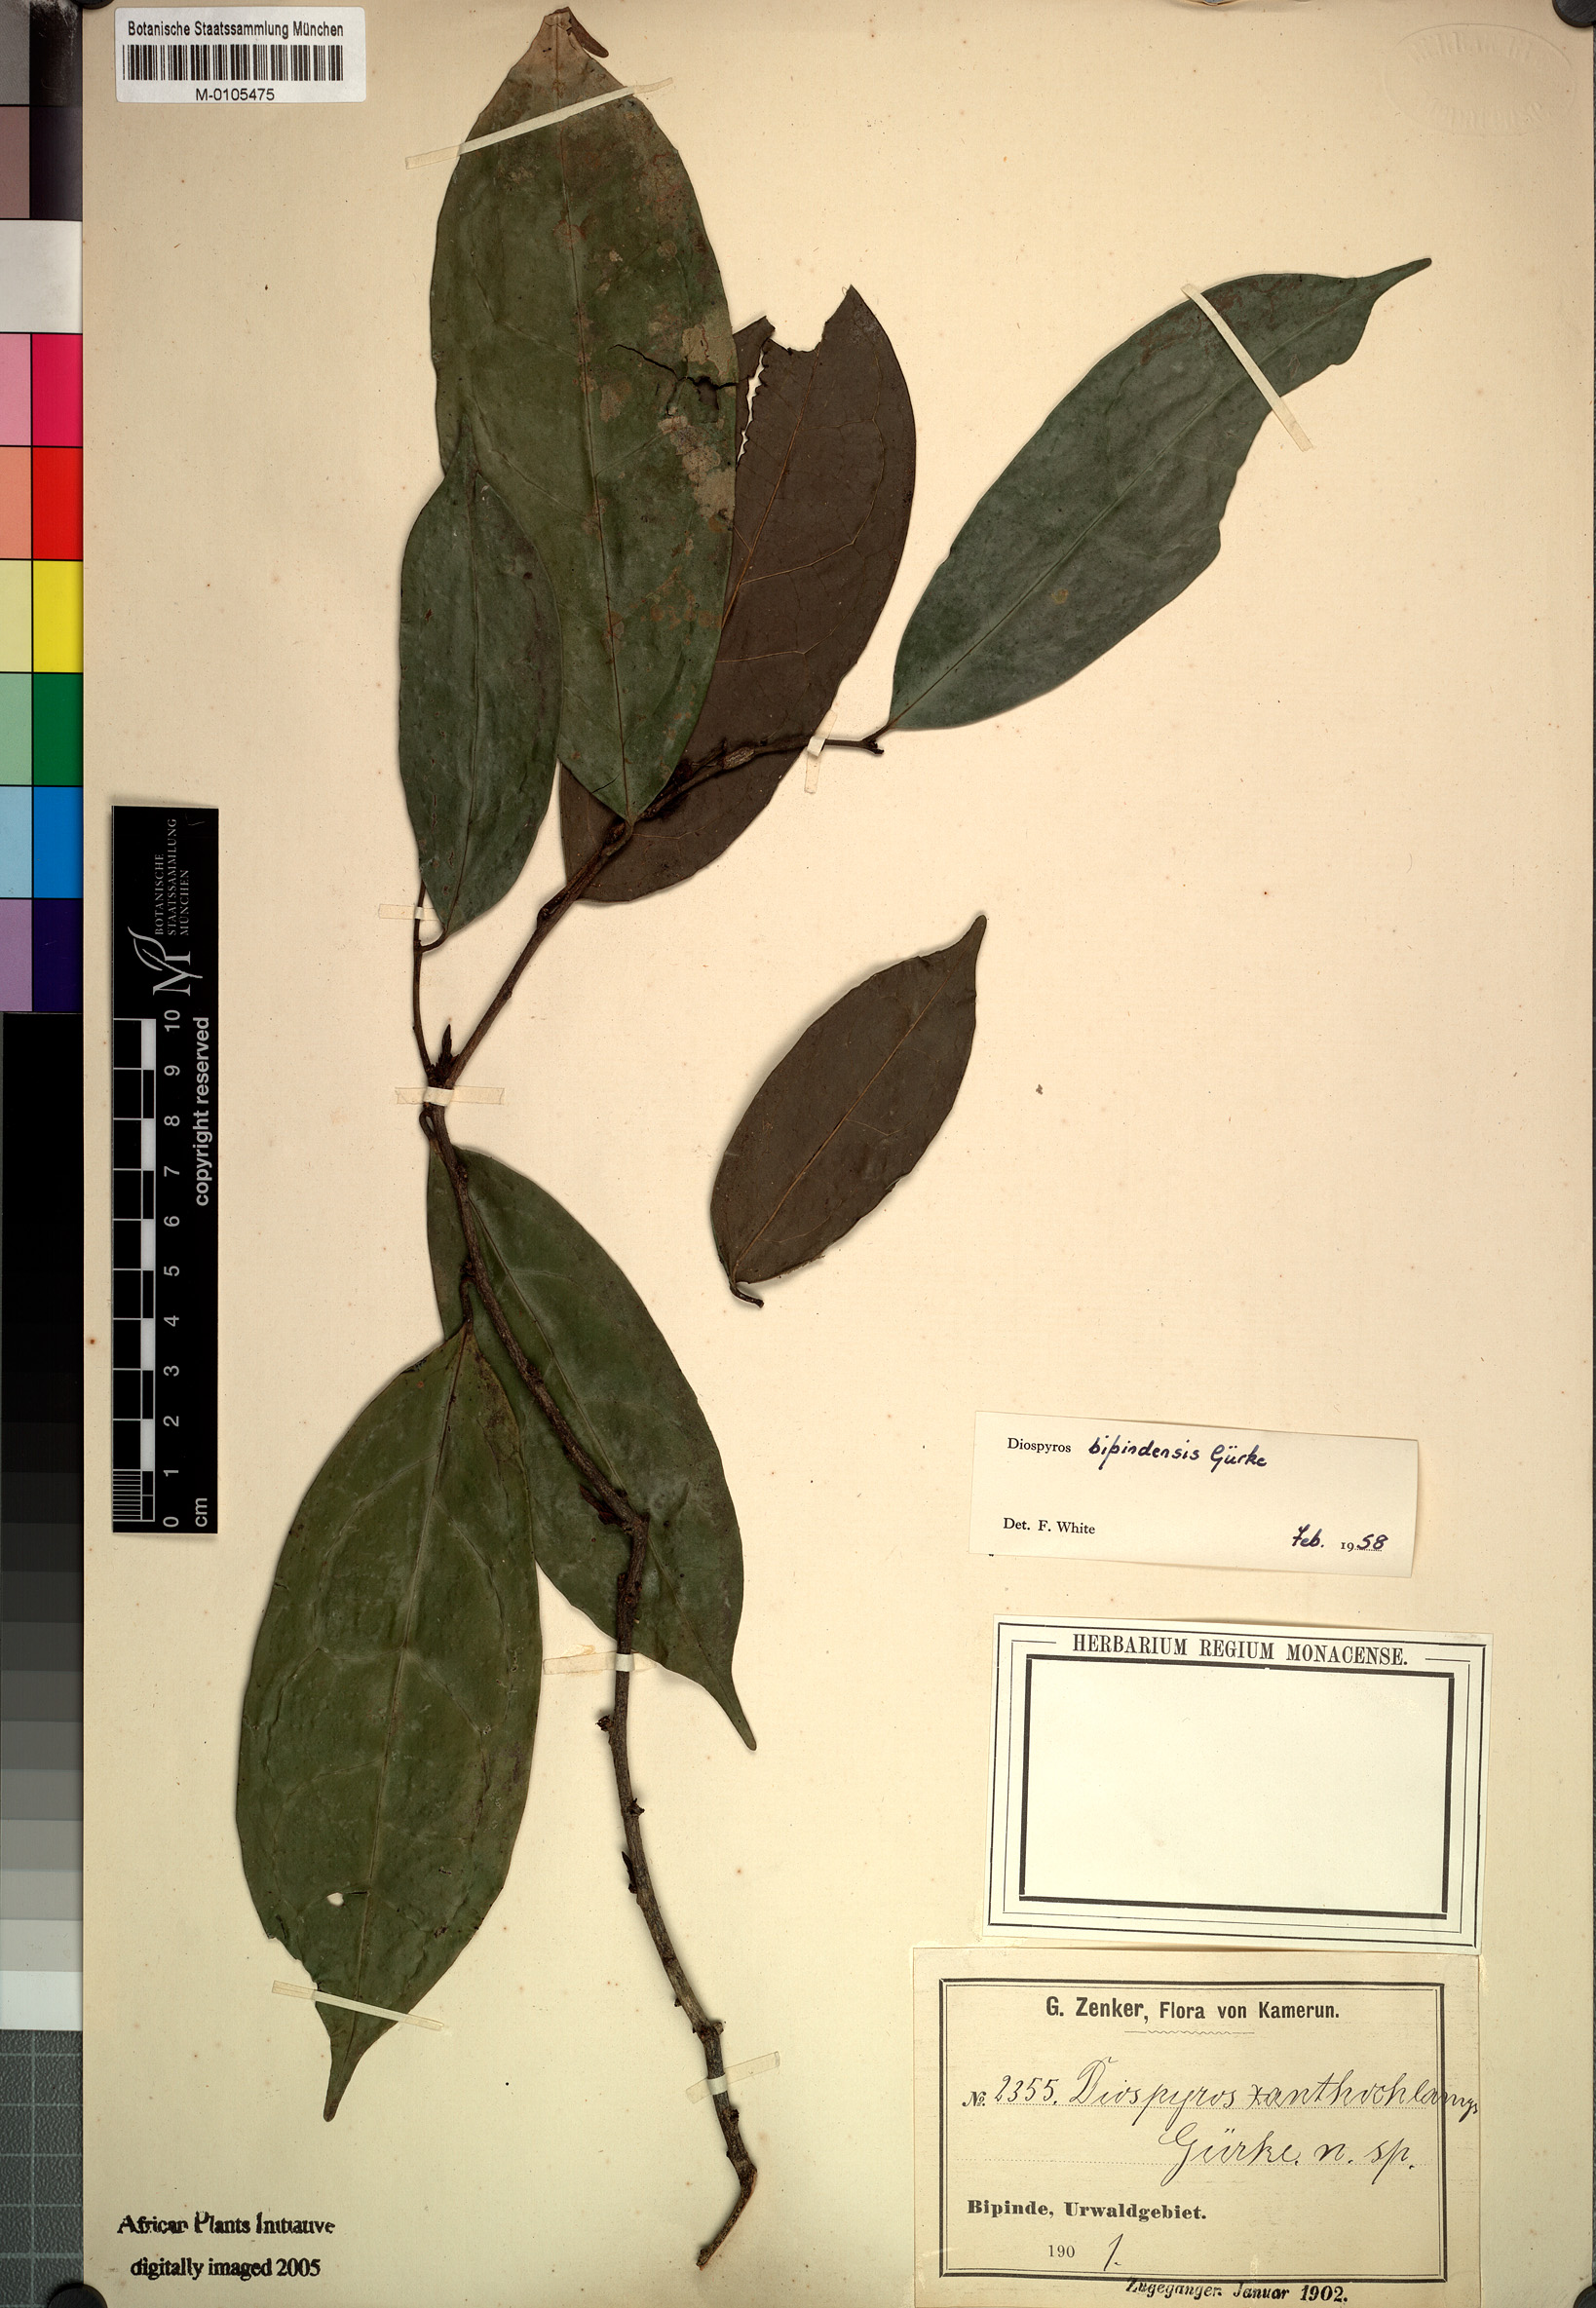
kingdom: Plantae
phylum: Tracheophyta
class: Magnoliopsida
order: Ericales
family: Ebenaceae
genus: Diospyros
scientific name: Diospyros bipindensis
